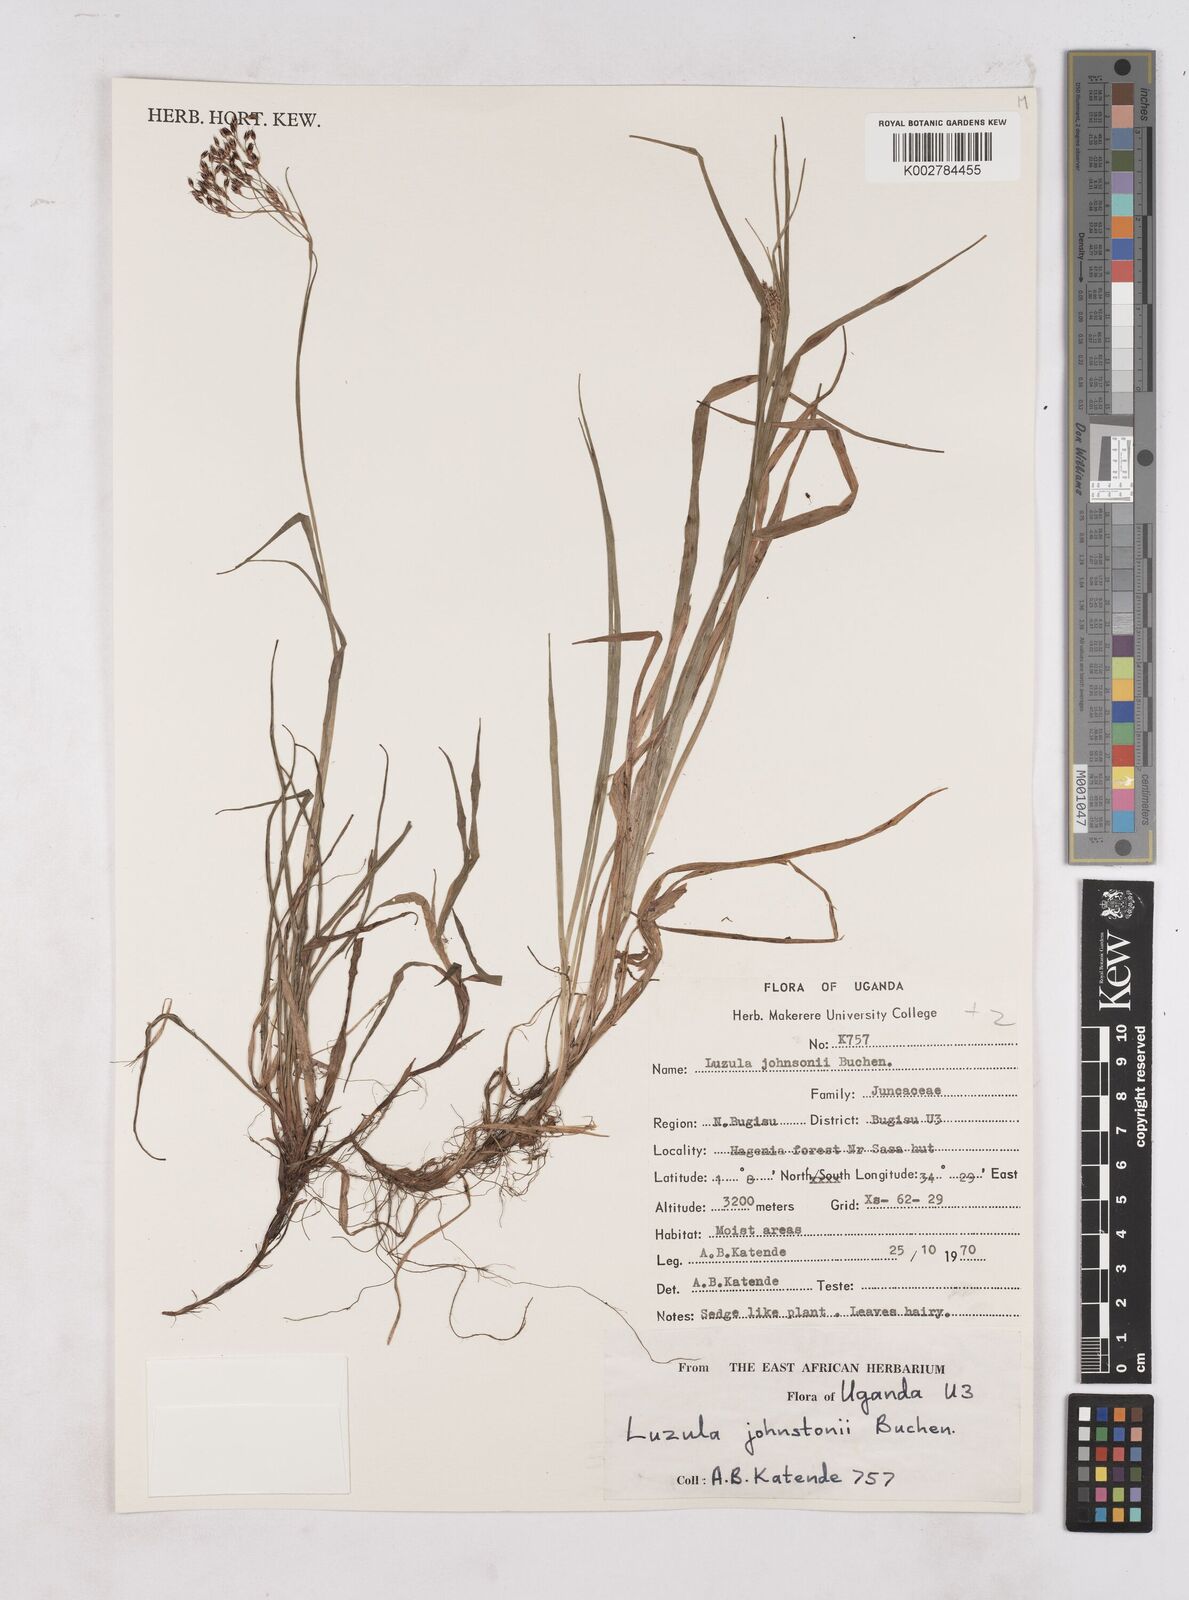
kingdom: Plantae
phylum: Tracheophyta
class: Liliopsida
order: Poales
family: Juncaceae
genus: Luzula
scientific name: Luzula johnstonii
